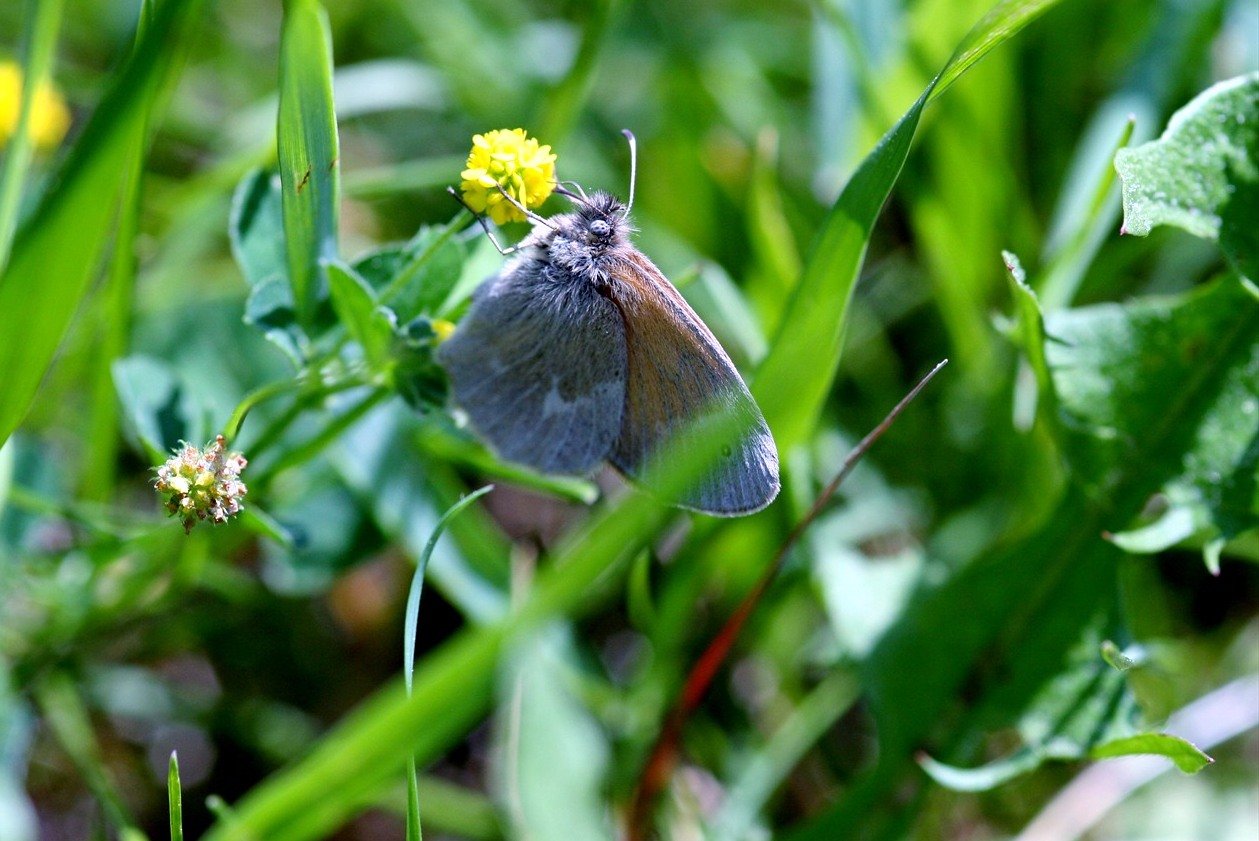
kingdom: Animalia
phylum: Arthropoda
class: Insecta
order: Lepidoptera
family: Nymphalidae
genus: Coenonympha
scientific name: Coenonympha tullia
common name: Large Heath
